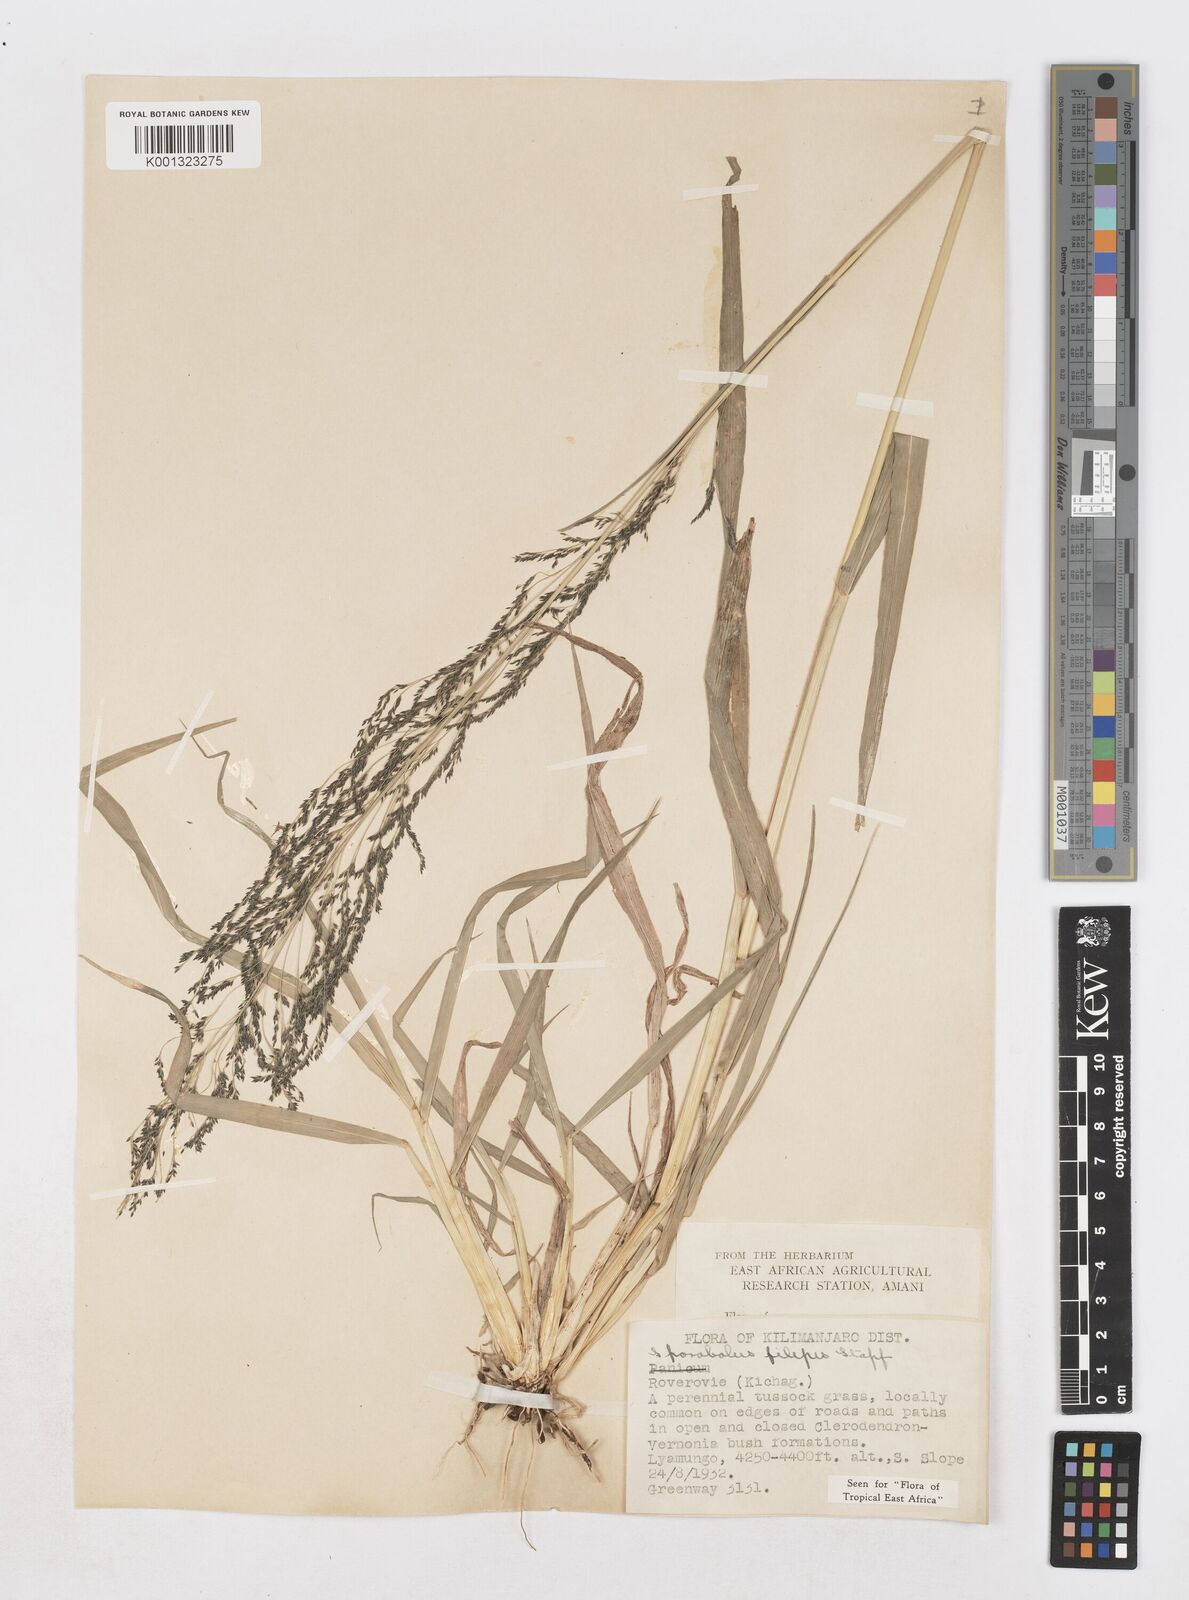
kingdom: Plantae
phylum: Tracheophyta
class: Liliopsida
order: Poales
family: Poaceae
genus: Sporobolus
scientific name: Sporobolus agrostoides
